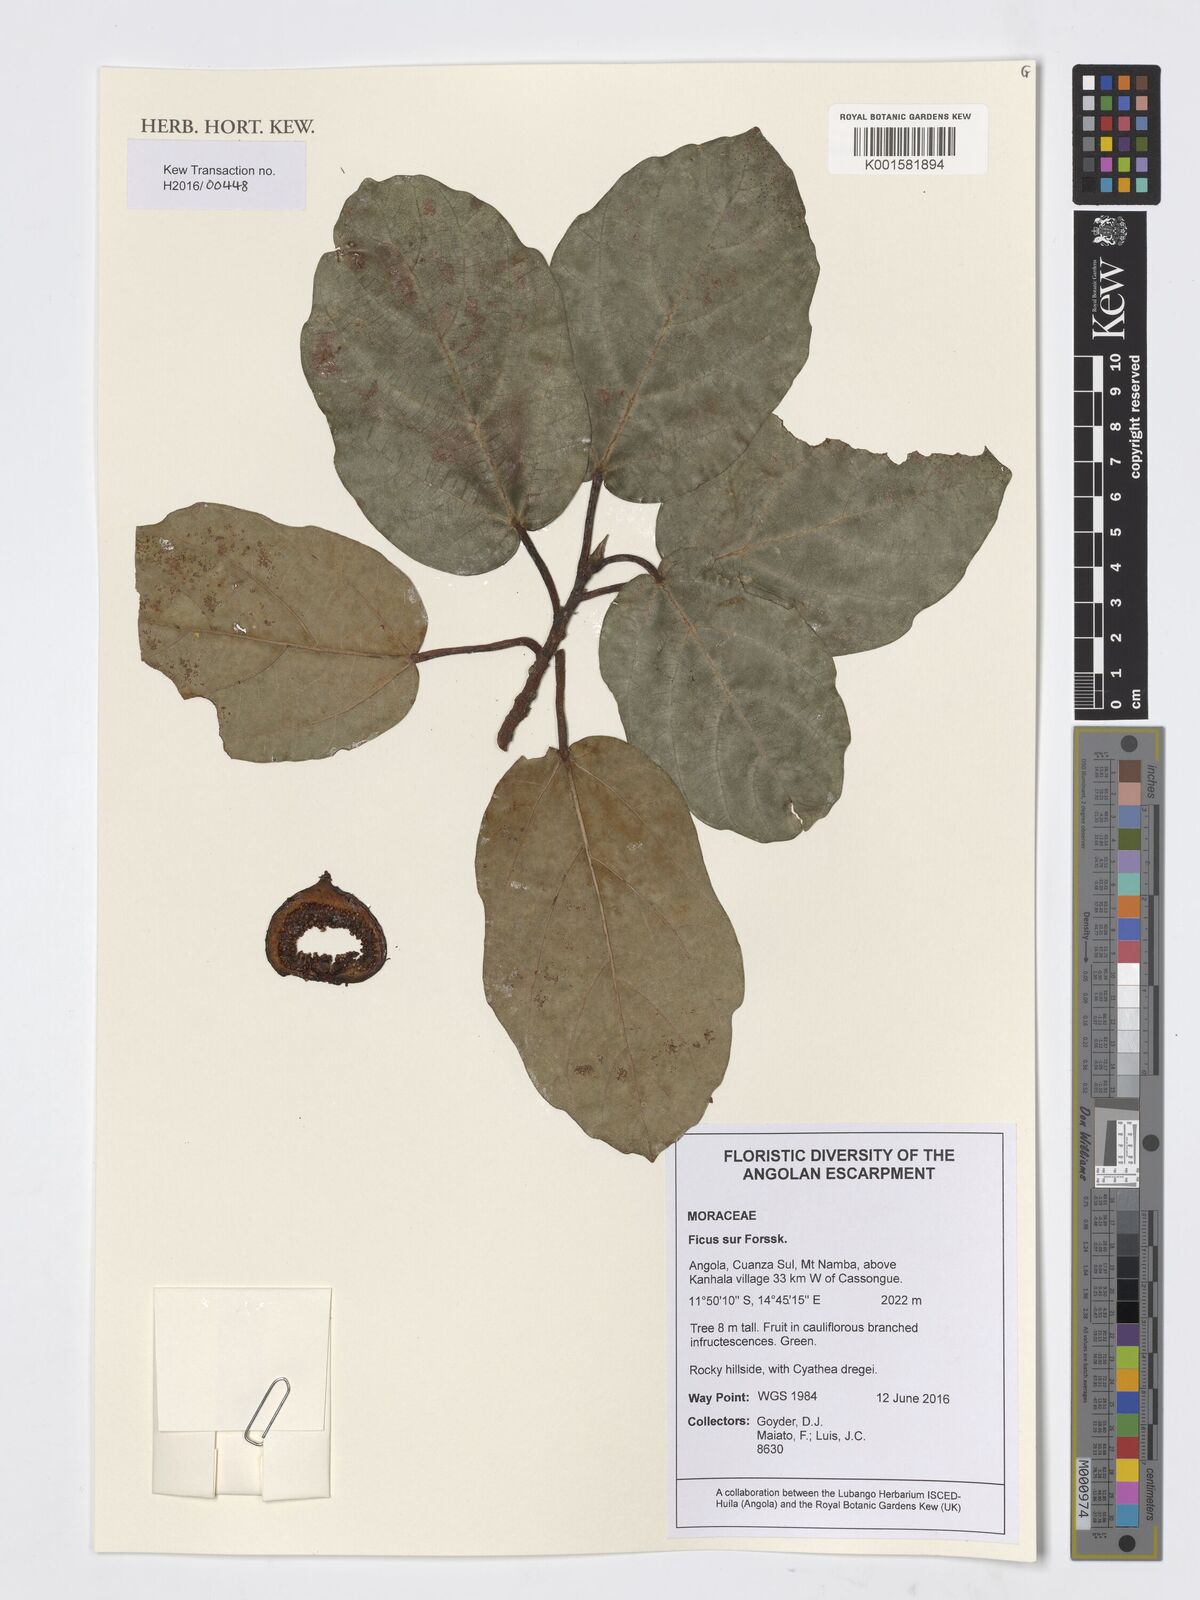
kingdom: Plantae
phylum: Tracheophyta
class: Magnoliopsida
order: Rosales
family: Moraceae
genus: Ficus
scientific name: Ficus sur
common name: Cape fig
